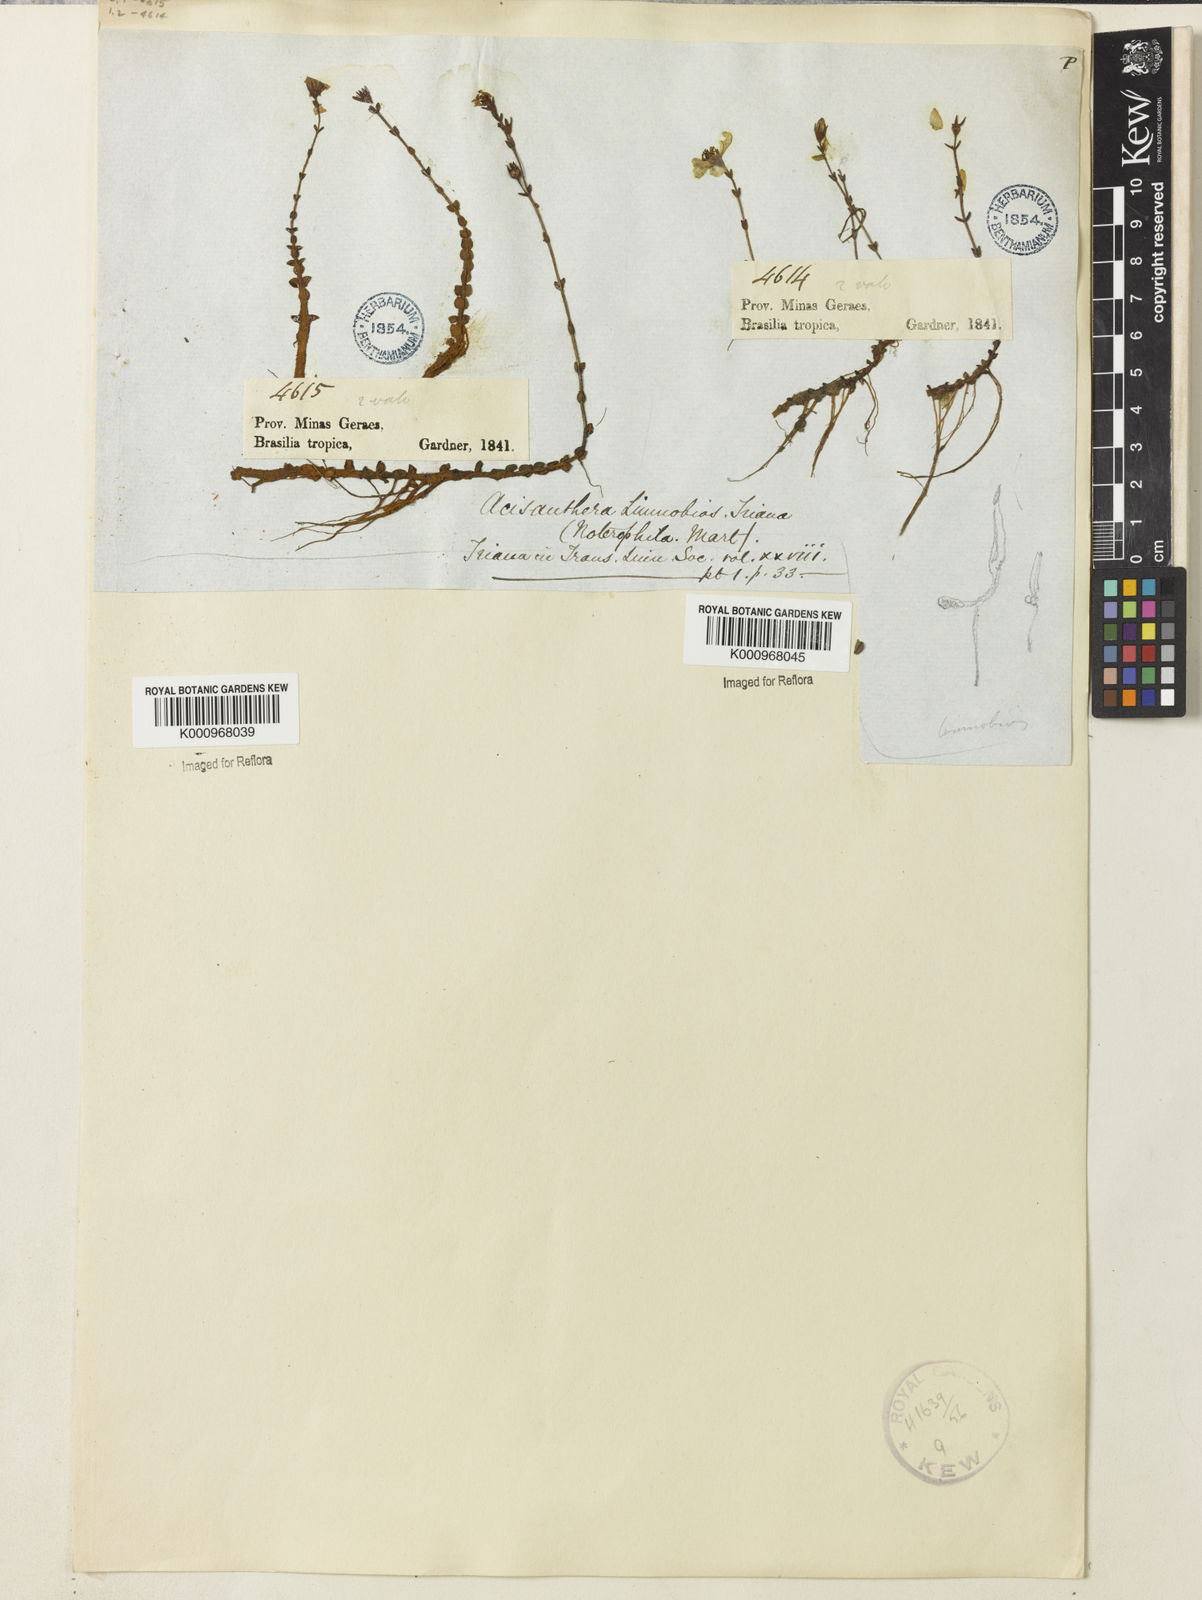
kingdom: Plantae
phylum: Tracheophyta
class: Magnoliopsida
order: Myrtales
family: Melastomataceae
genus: Acisanthera
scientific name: Acisanthera
